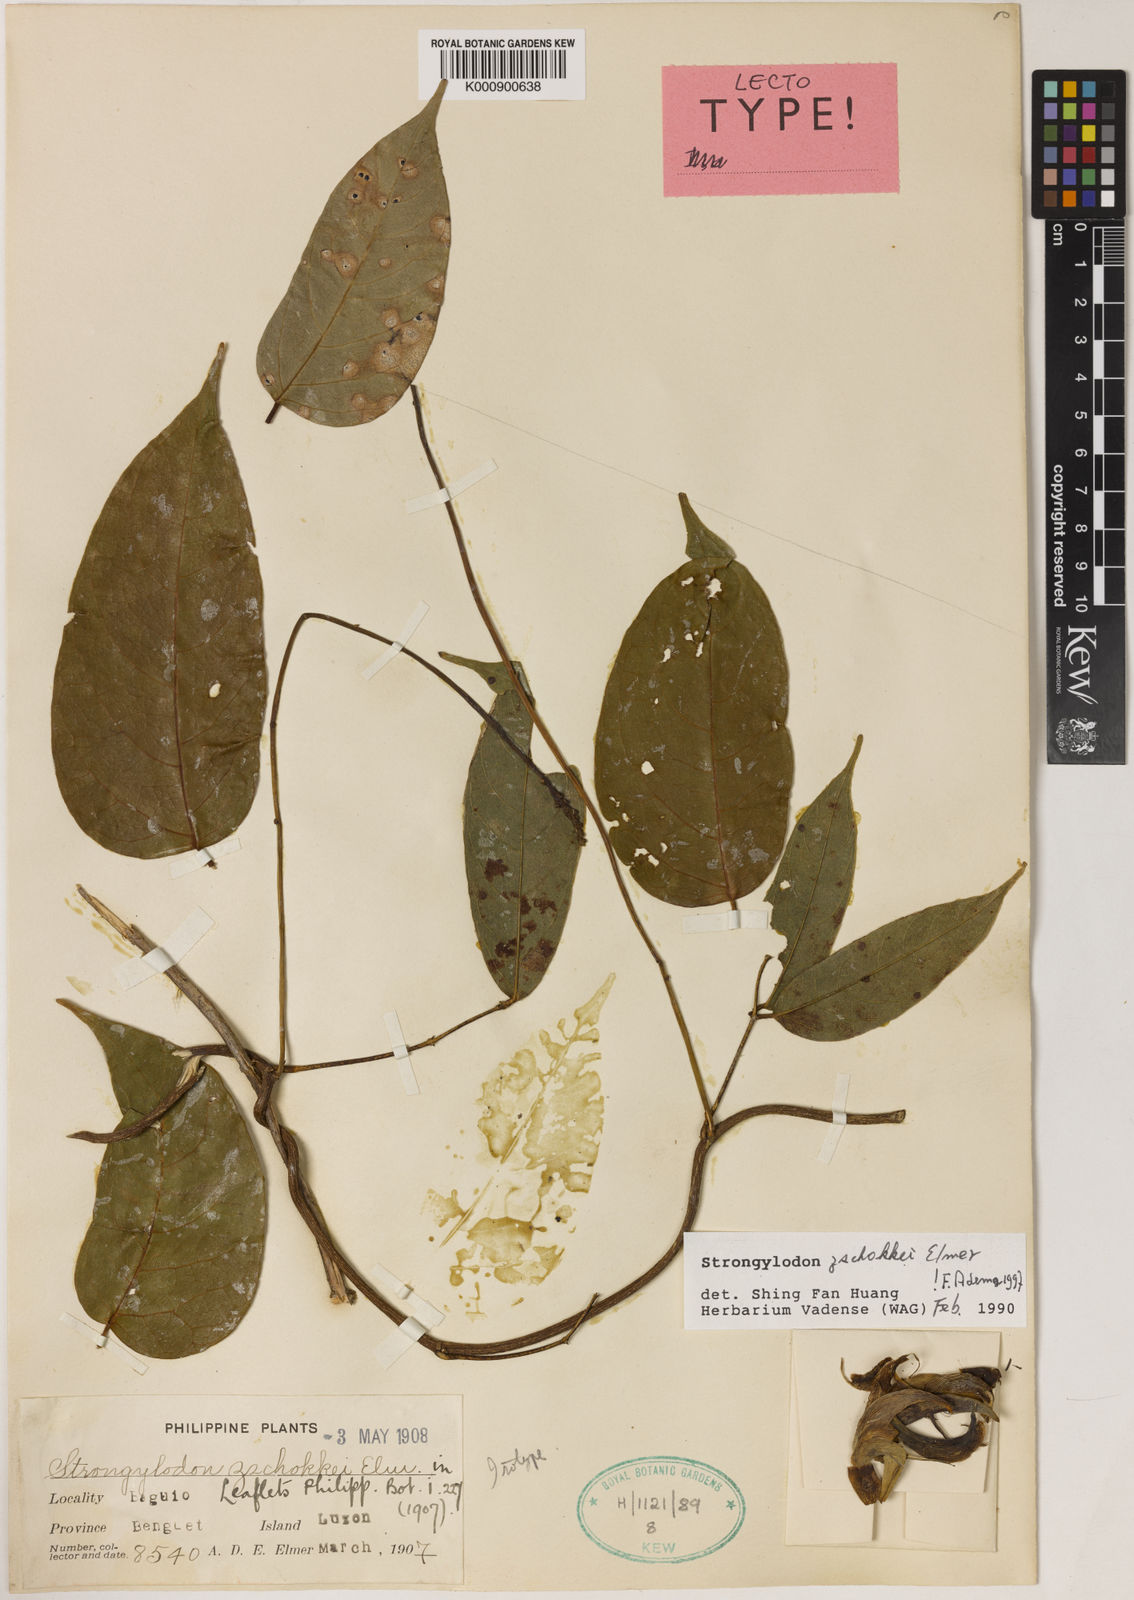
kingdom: Plantae
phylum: Tracheophyta
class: Magnoliopsida
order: Fabales
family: Fabaceae
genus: Strongylodon
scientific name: Strongylodon zschokkei
